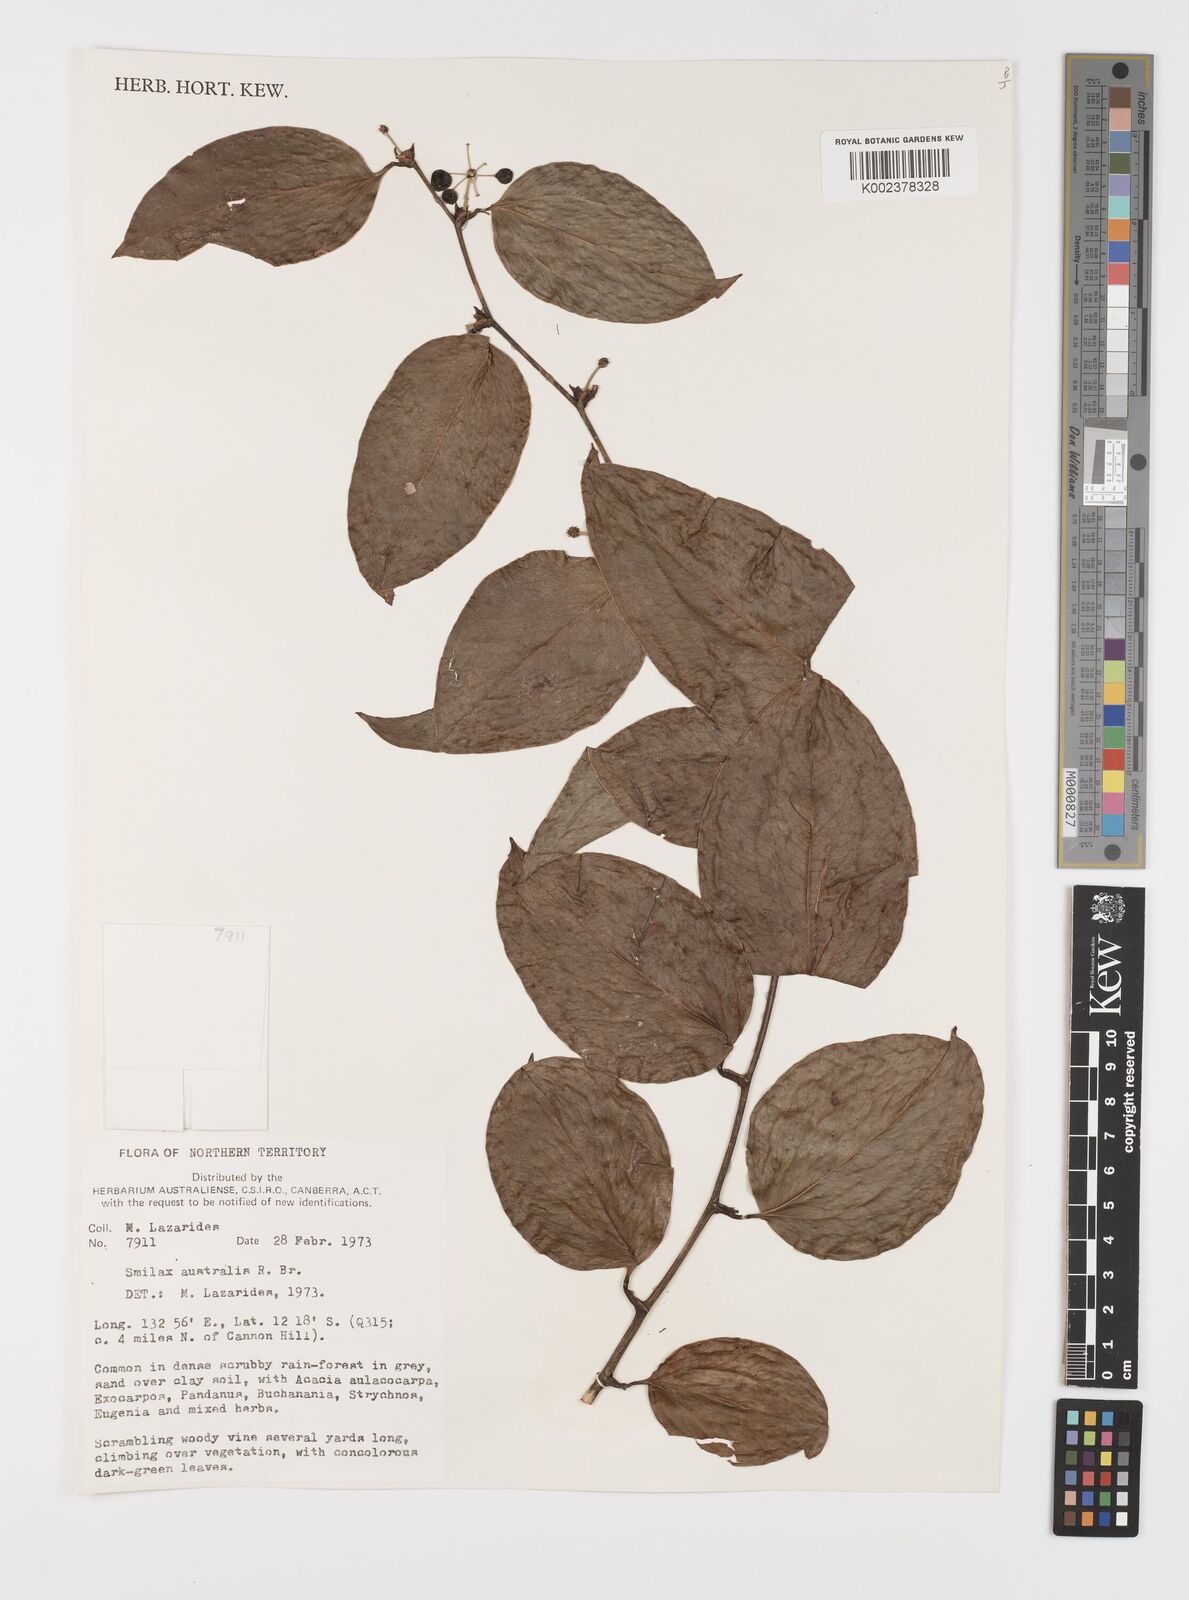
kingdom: Plantae
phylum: Tracheophyta
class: Liliopsida
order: Liliales
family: Smilacaceae
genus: Smilax
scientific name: Smilax australis
